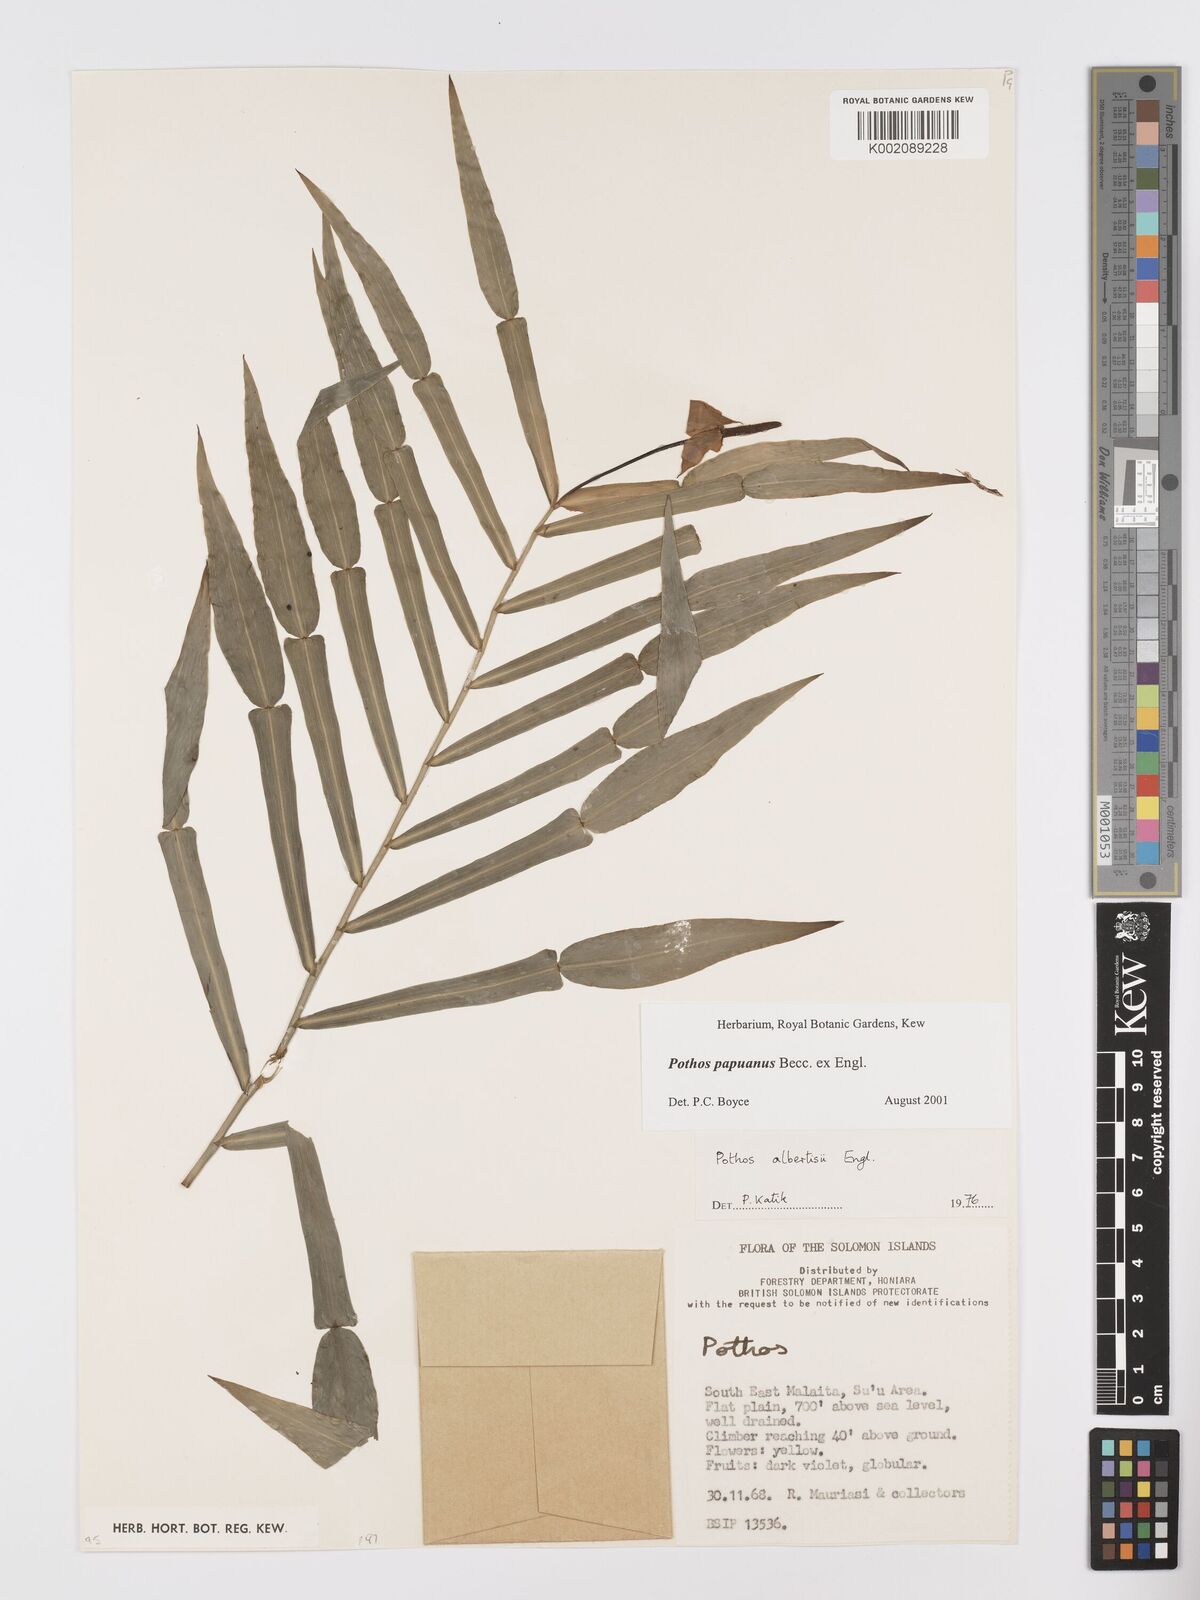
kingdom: Plantae
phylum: Tracheophyta
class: Liliopsida
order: Alismatales
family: Araceae
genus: Pothos
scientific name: Pothos papuanus
